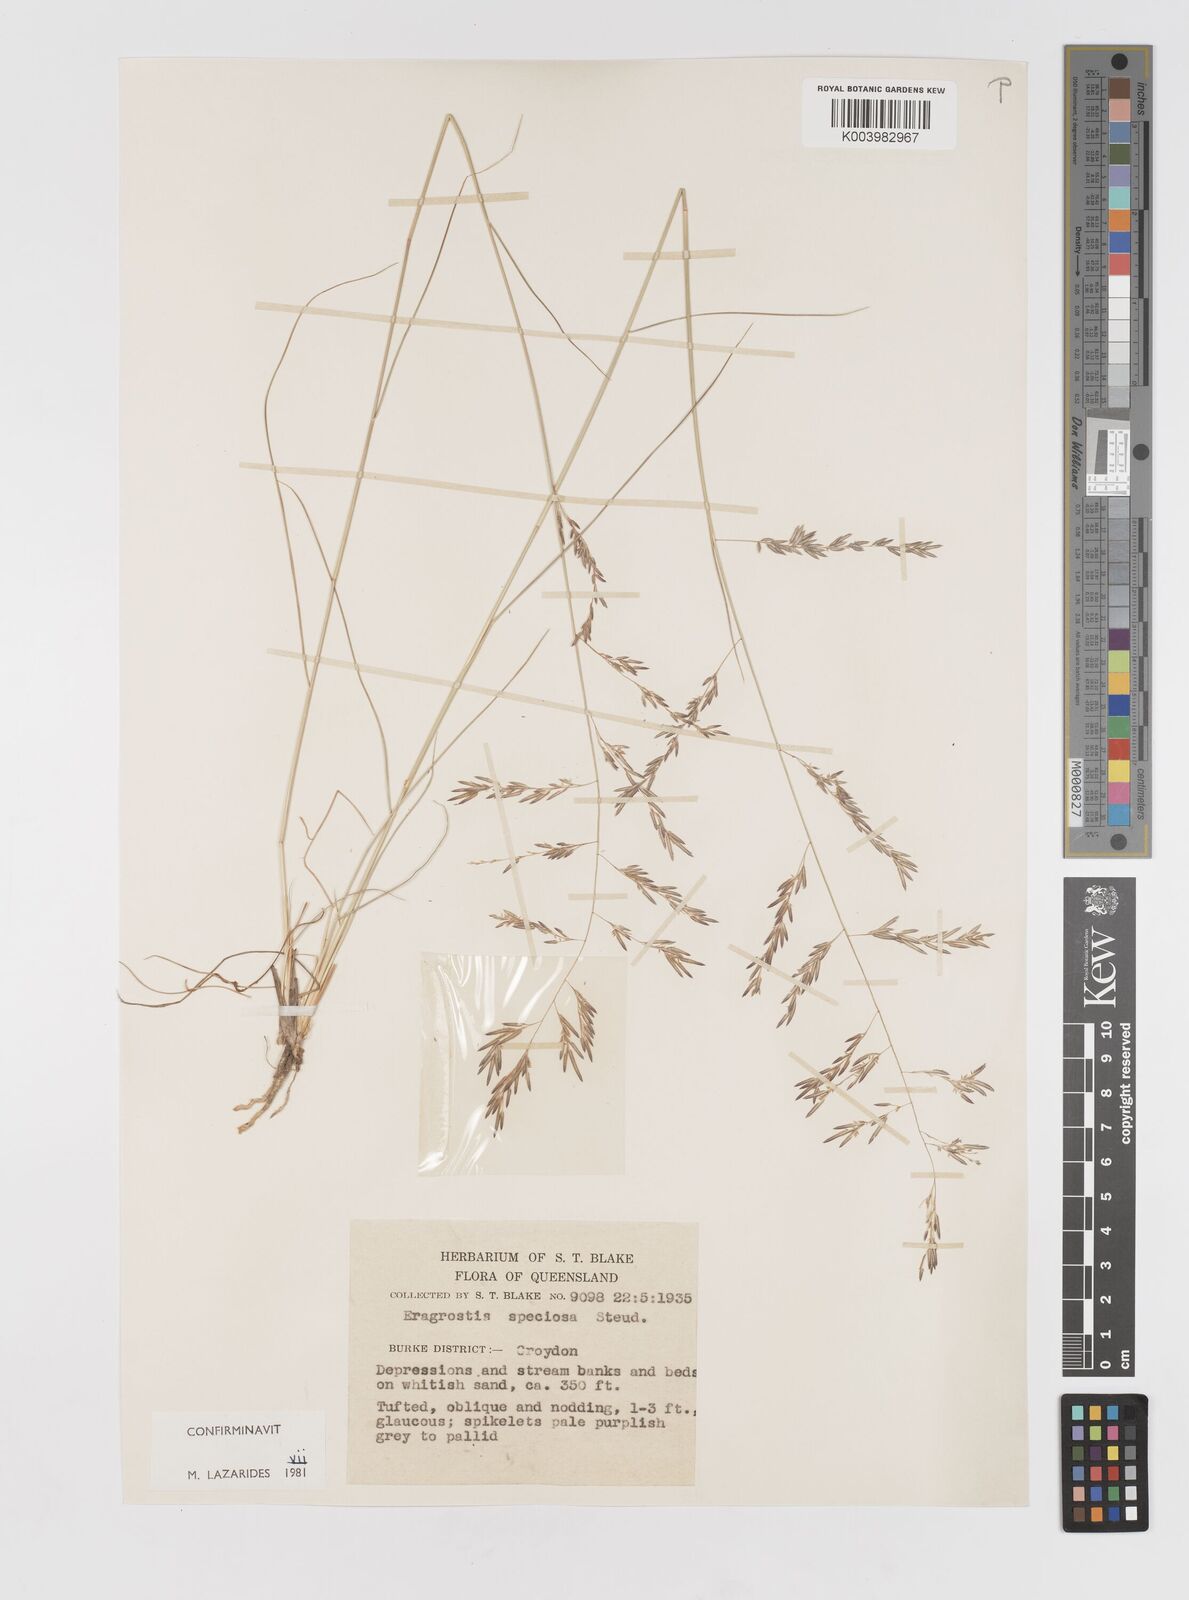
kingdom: Plantae
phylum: Tracheophyta
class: Liliopsida
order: Poales
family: Poaceae
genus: Eragrostis
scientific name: Eragrostis speciosa
